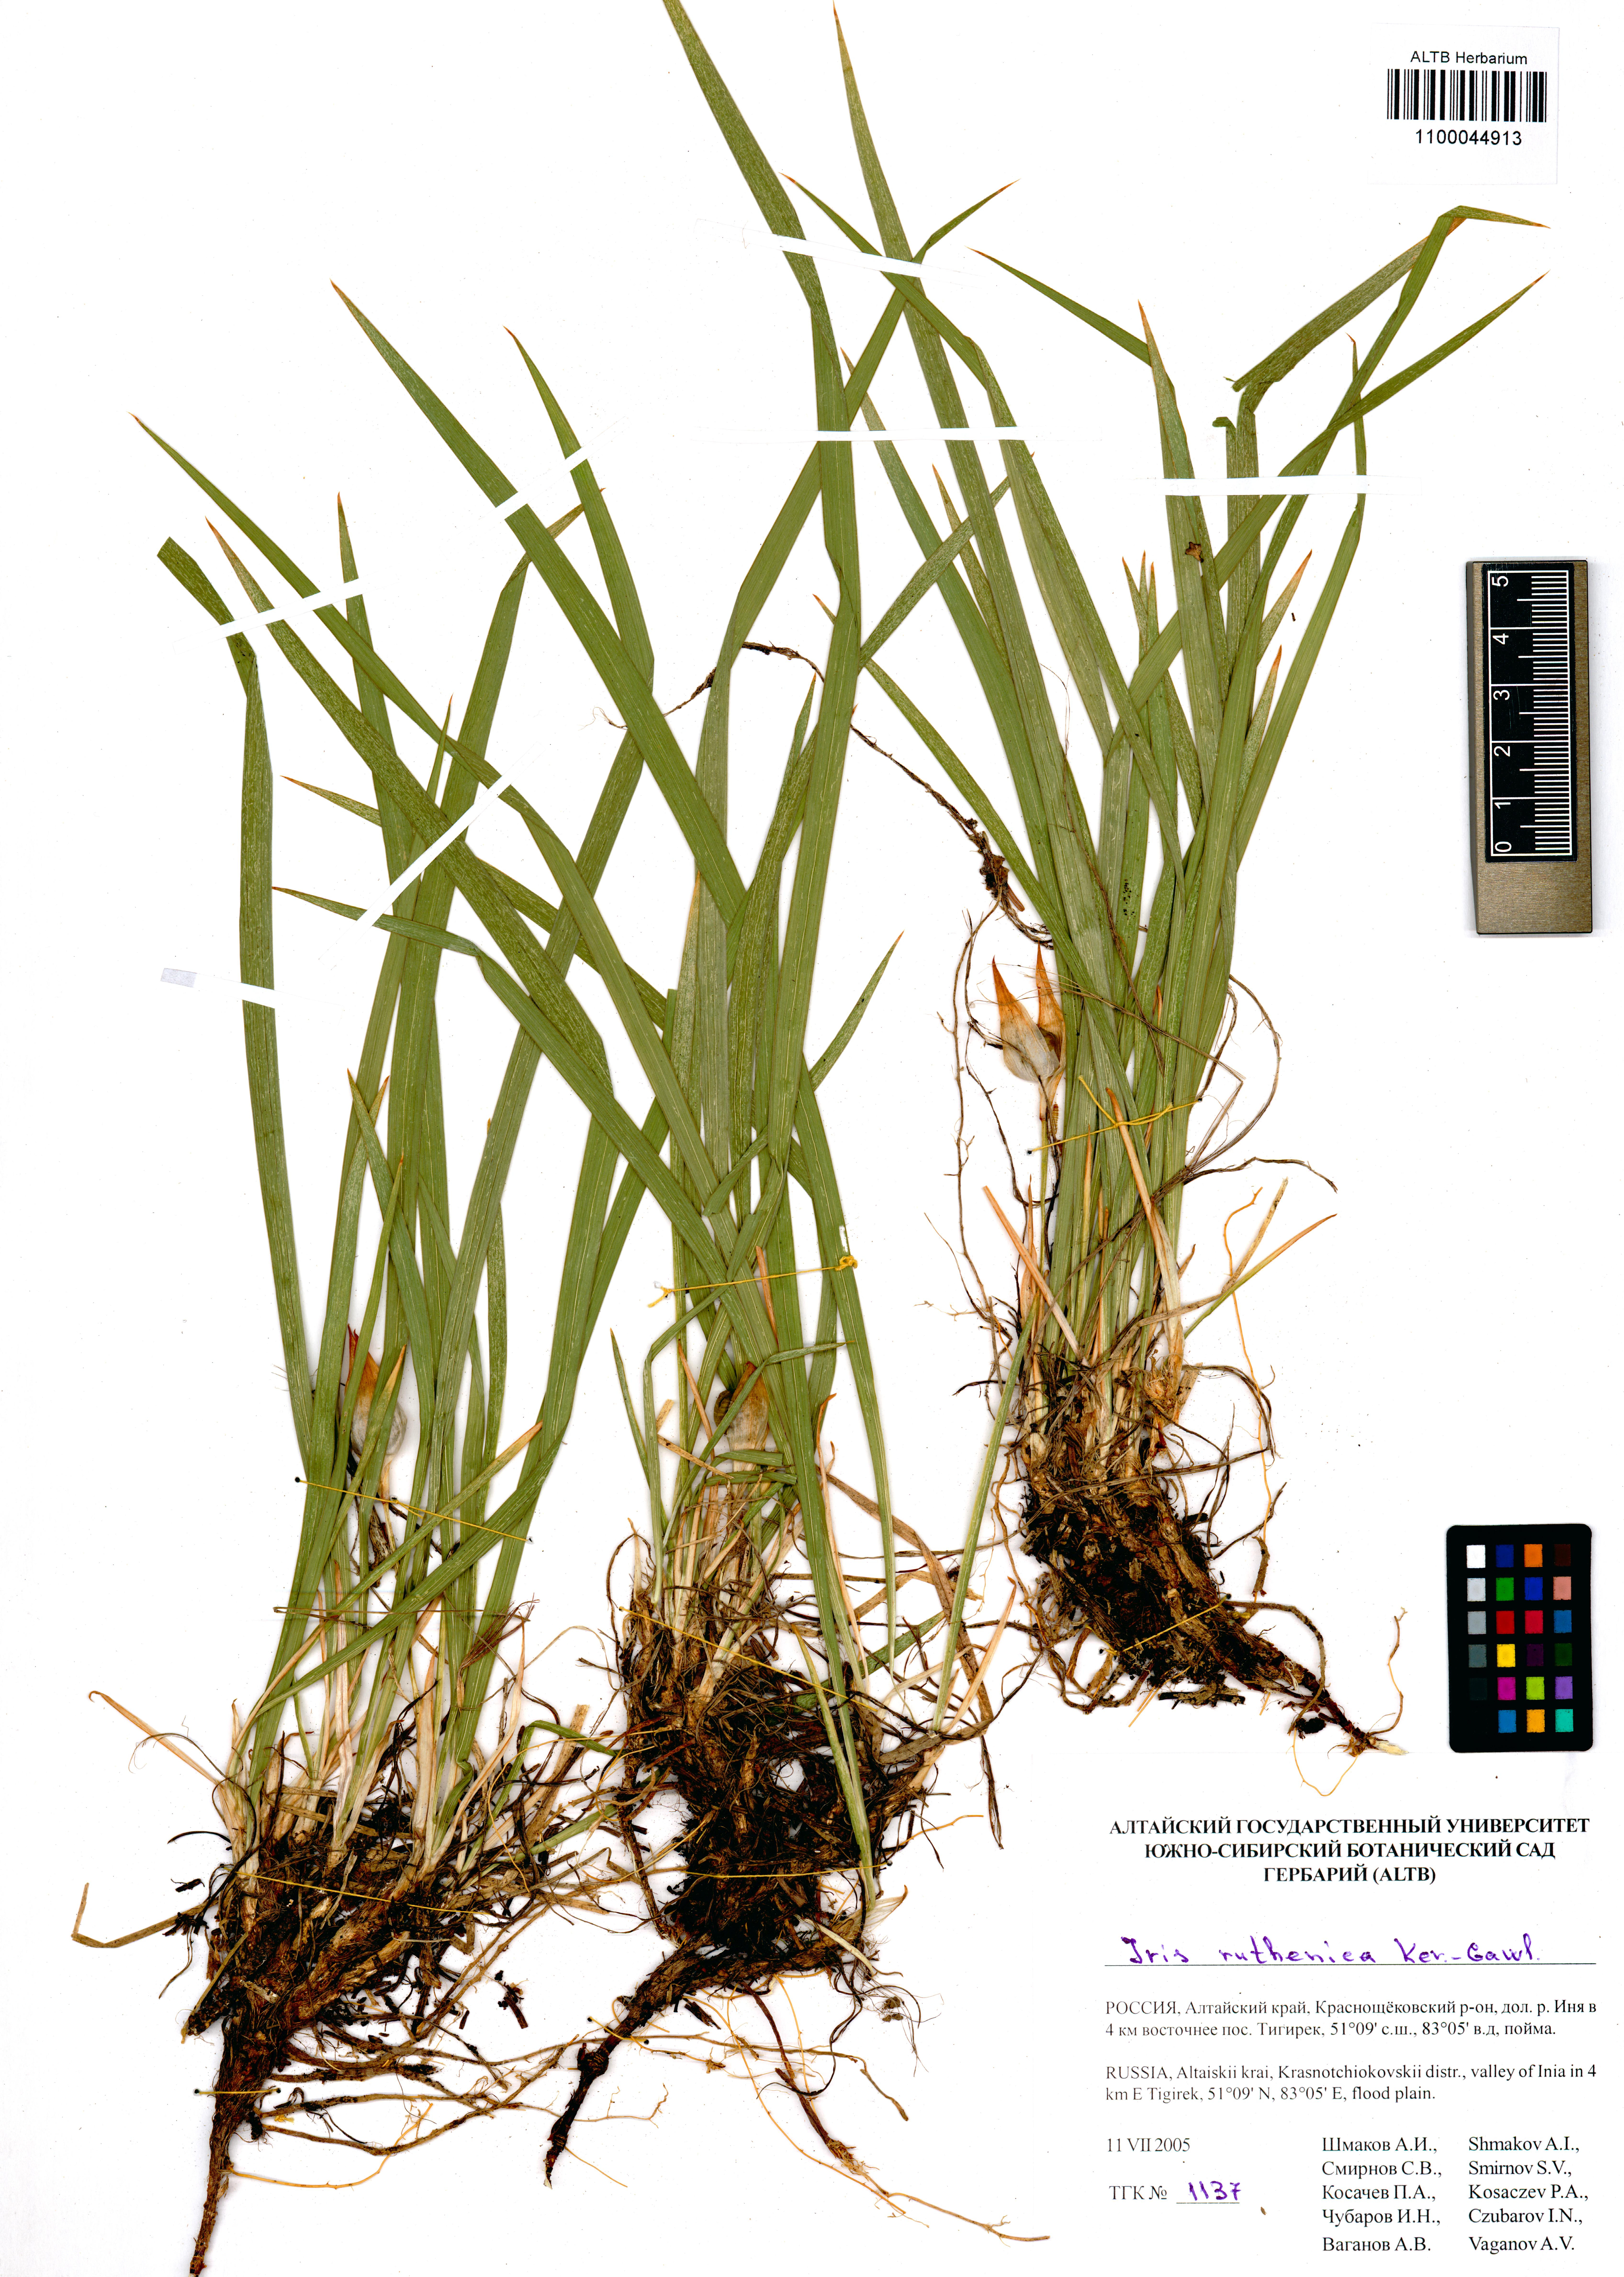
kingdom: Plantae
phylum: Tracheophyta
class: Liliopsida
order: Asparagales
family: Iridaceae
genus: Iris
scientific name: Iris ruthenica
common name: Purple-bract iris
